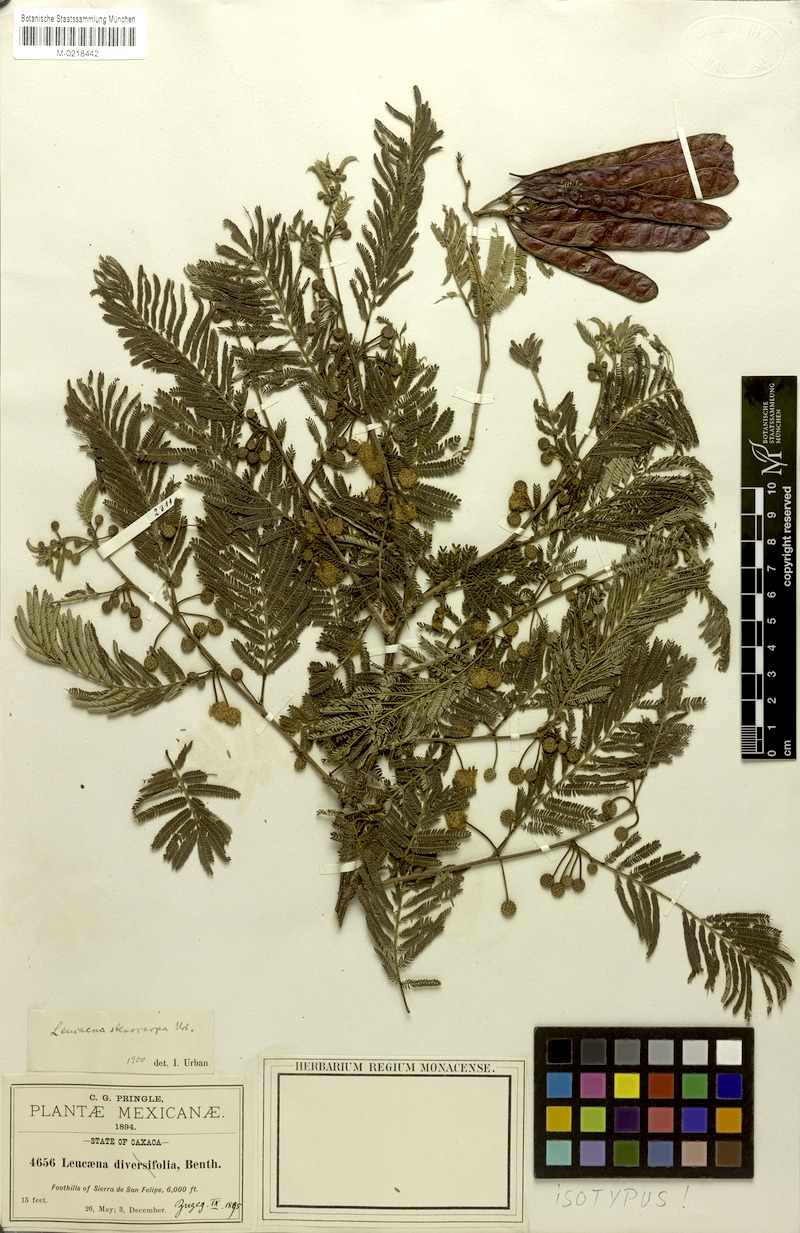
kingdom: Plantae
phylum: Tracheophyta
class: Magnoliopsida
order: Fabales
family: Fabaceae
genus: Leucaena
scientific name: Leucaena trichandra
